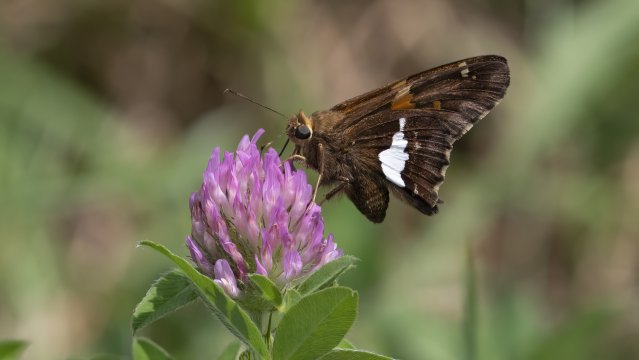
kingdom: Animalia
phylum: Arthropoda
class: Insecta
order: Lepidoptera
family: Hesperiidae
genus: Epargyreus
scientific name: Epargyreus clarus
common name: Silver-spotted Skipper
